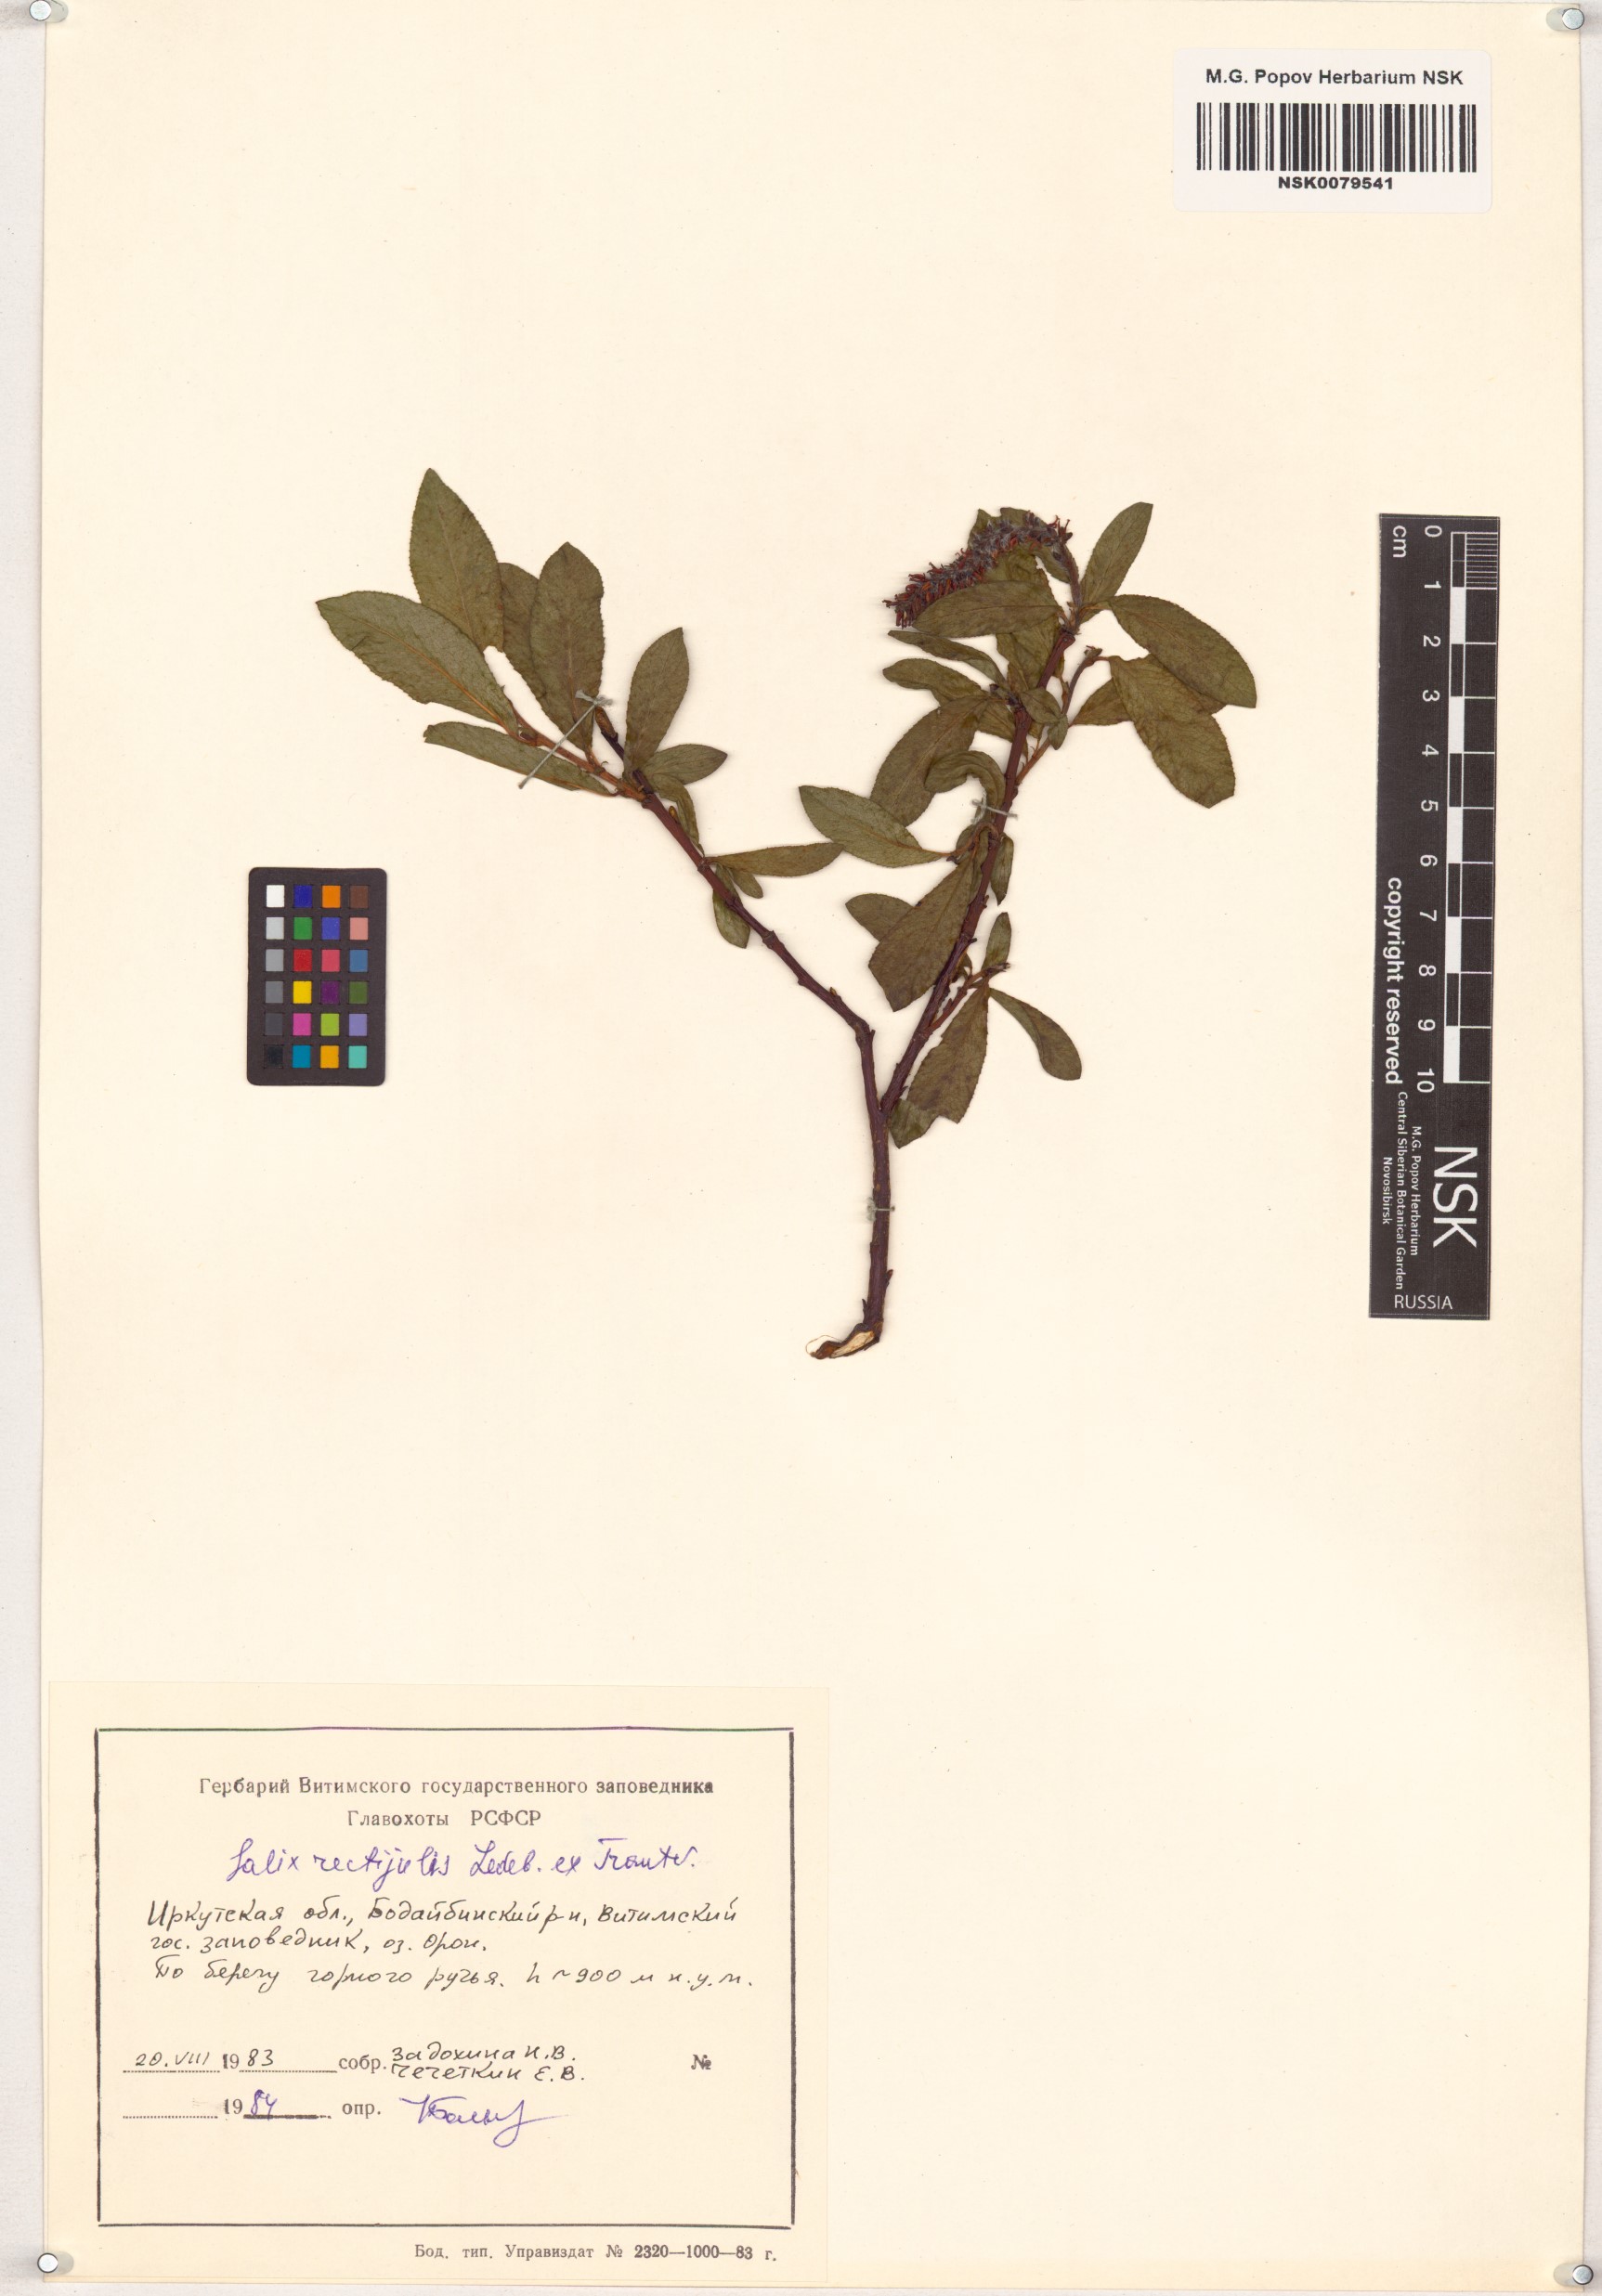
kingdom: Plantae
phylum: Tracheophyta
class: Magnoliopsida
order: Malpighiales
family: Salicaceae
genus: Salix
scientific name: Salix rectijulis
